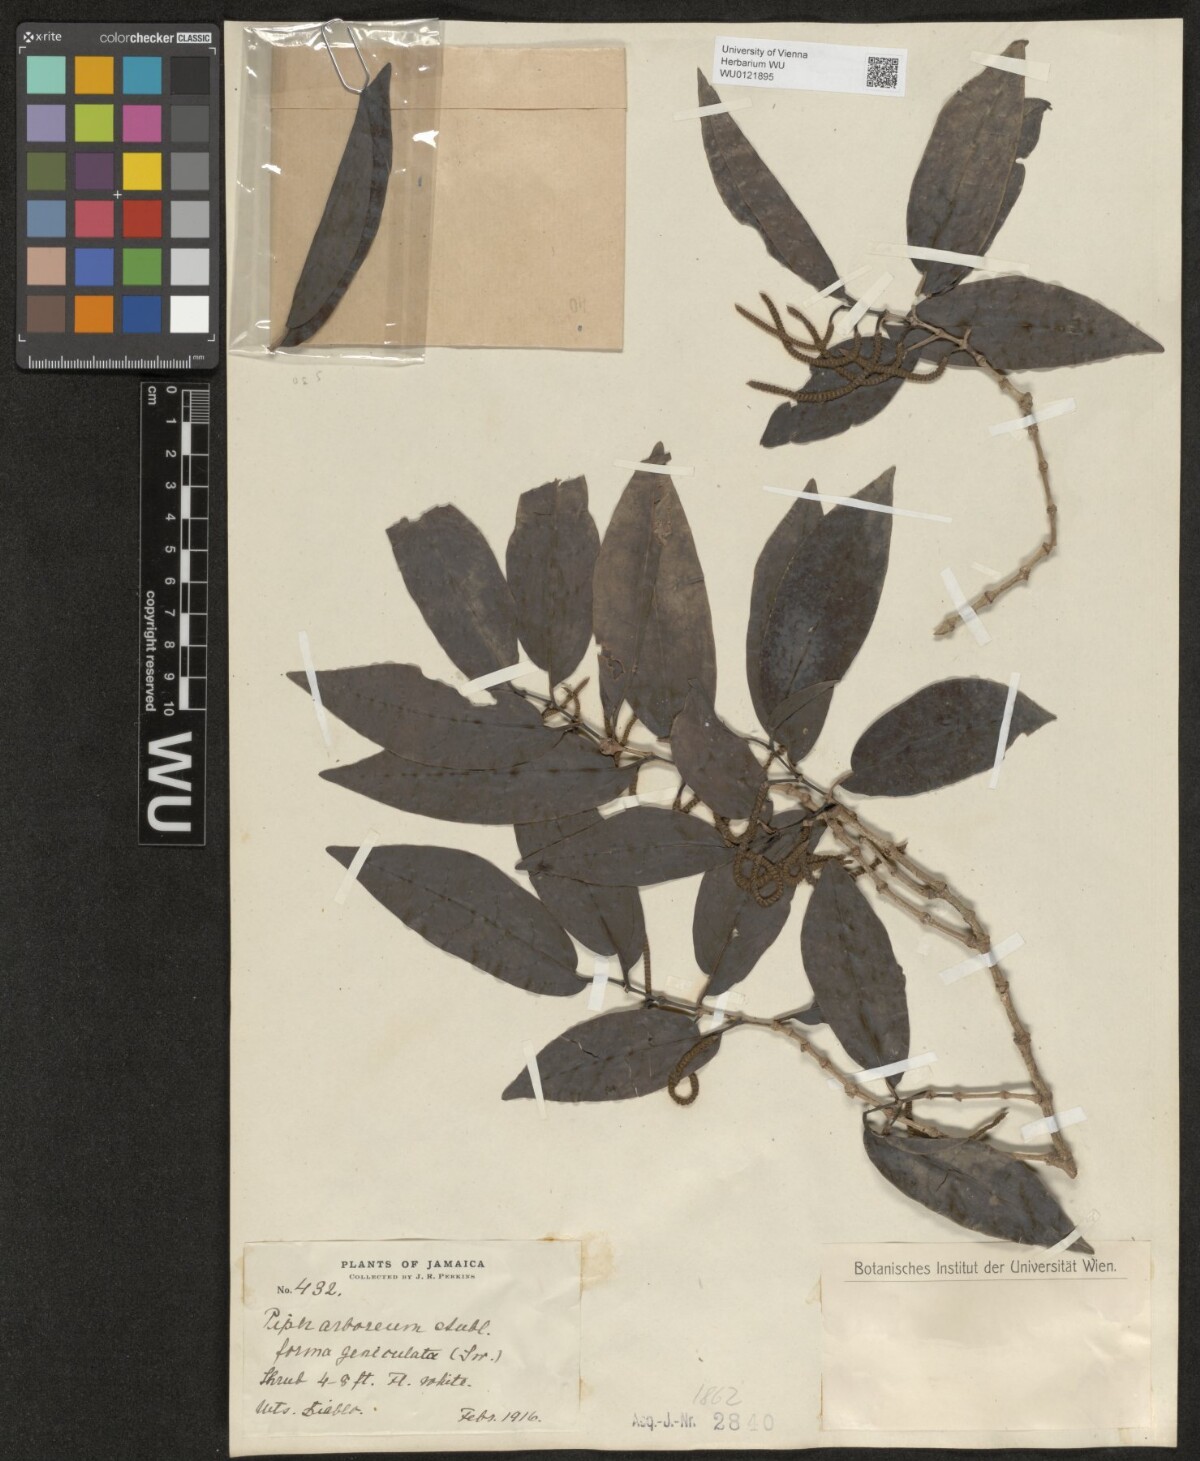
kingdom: Plantae
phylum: Tracheophyta
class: Magnoliopsida
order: Piperales
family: Piperaceae
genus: Piper
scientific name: Piper arboreum
